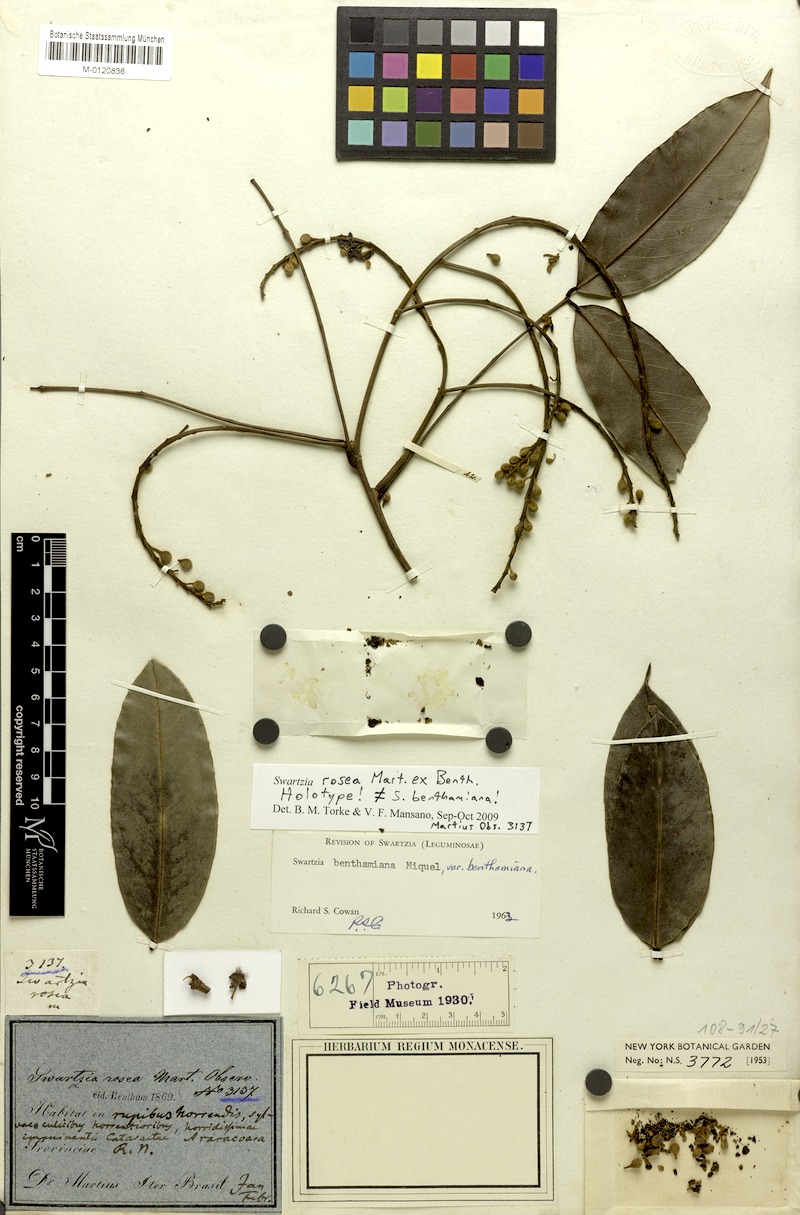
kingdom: Plantae
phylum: Tracheophyta
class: Magnoliopsida
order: Fabales
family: Fabaceae
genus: Swartzia
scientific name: Swartzia benthamiana
